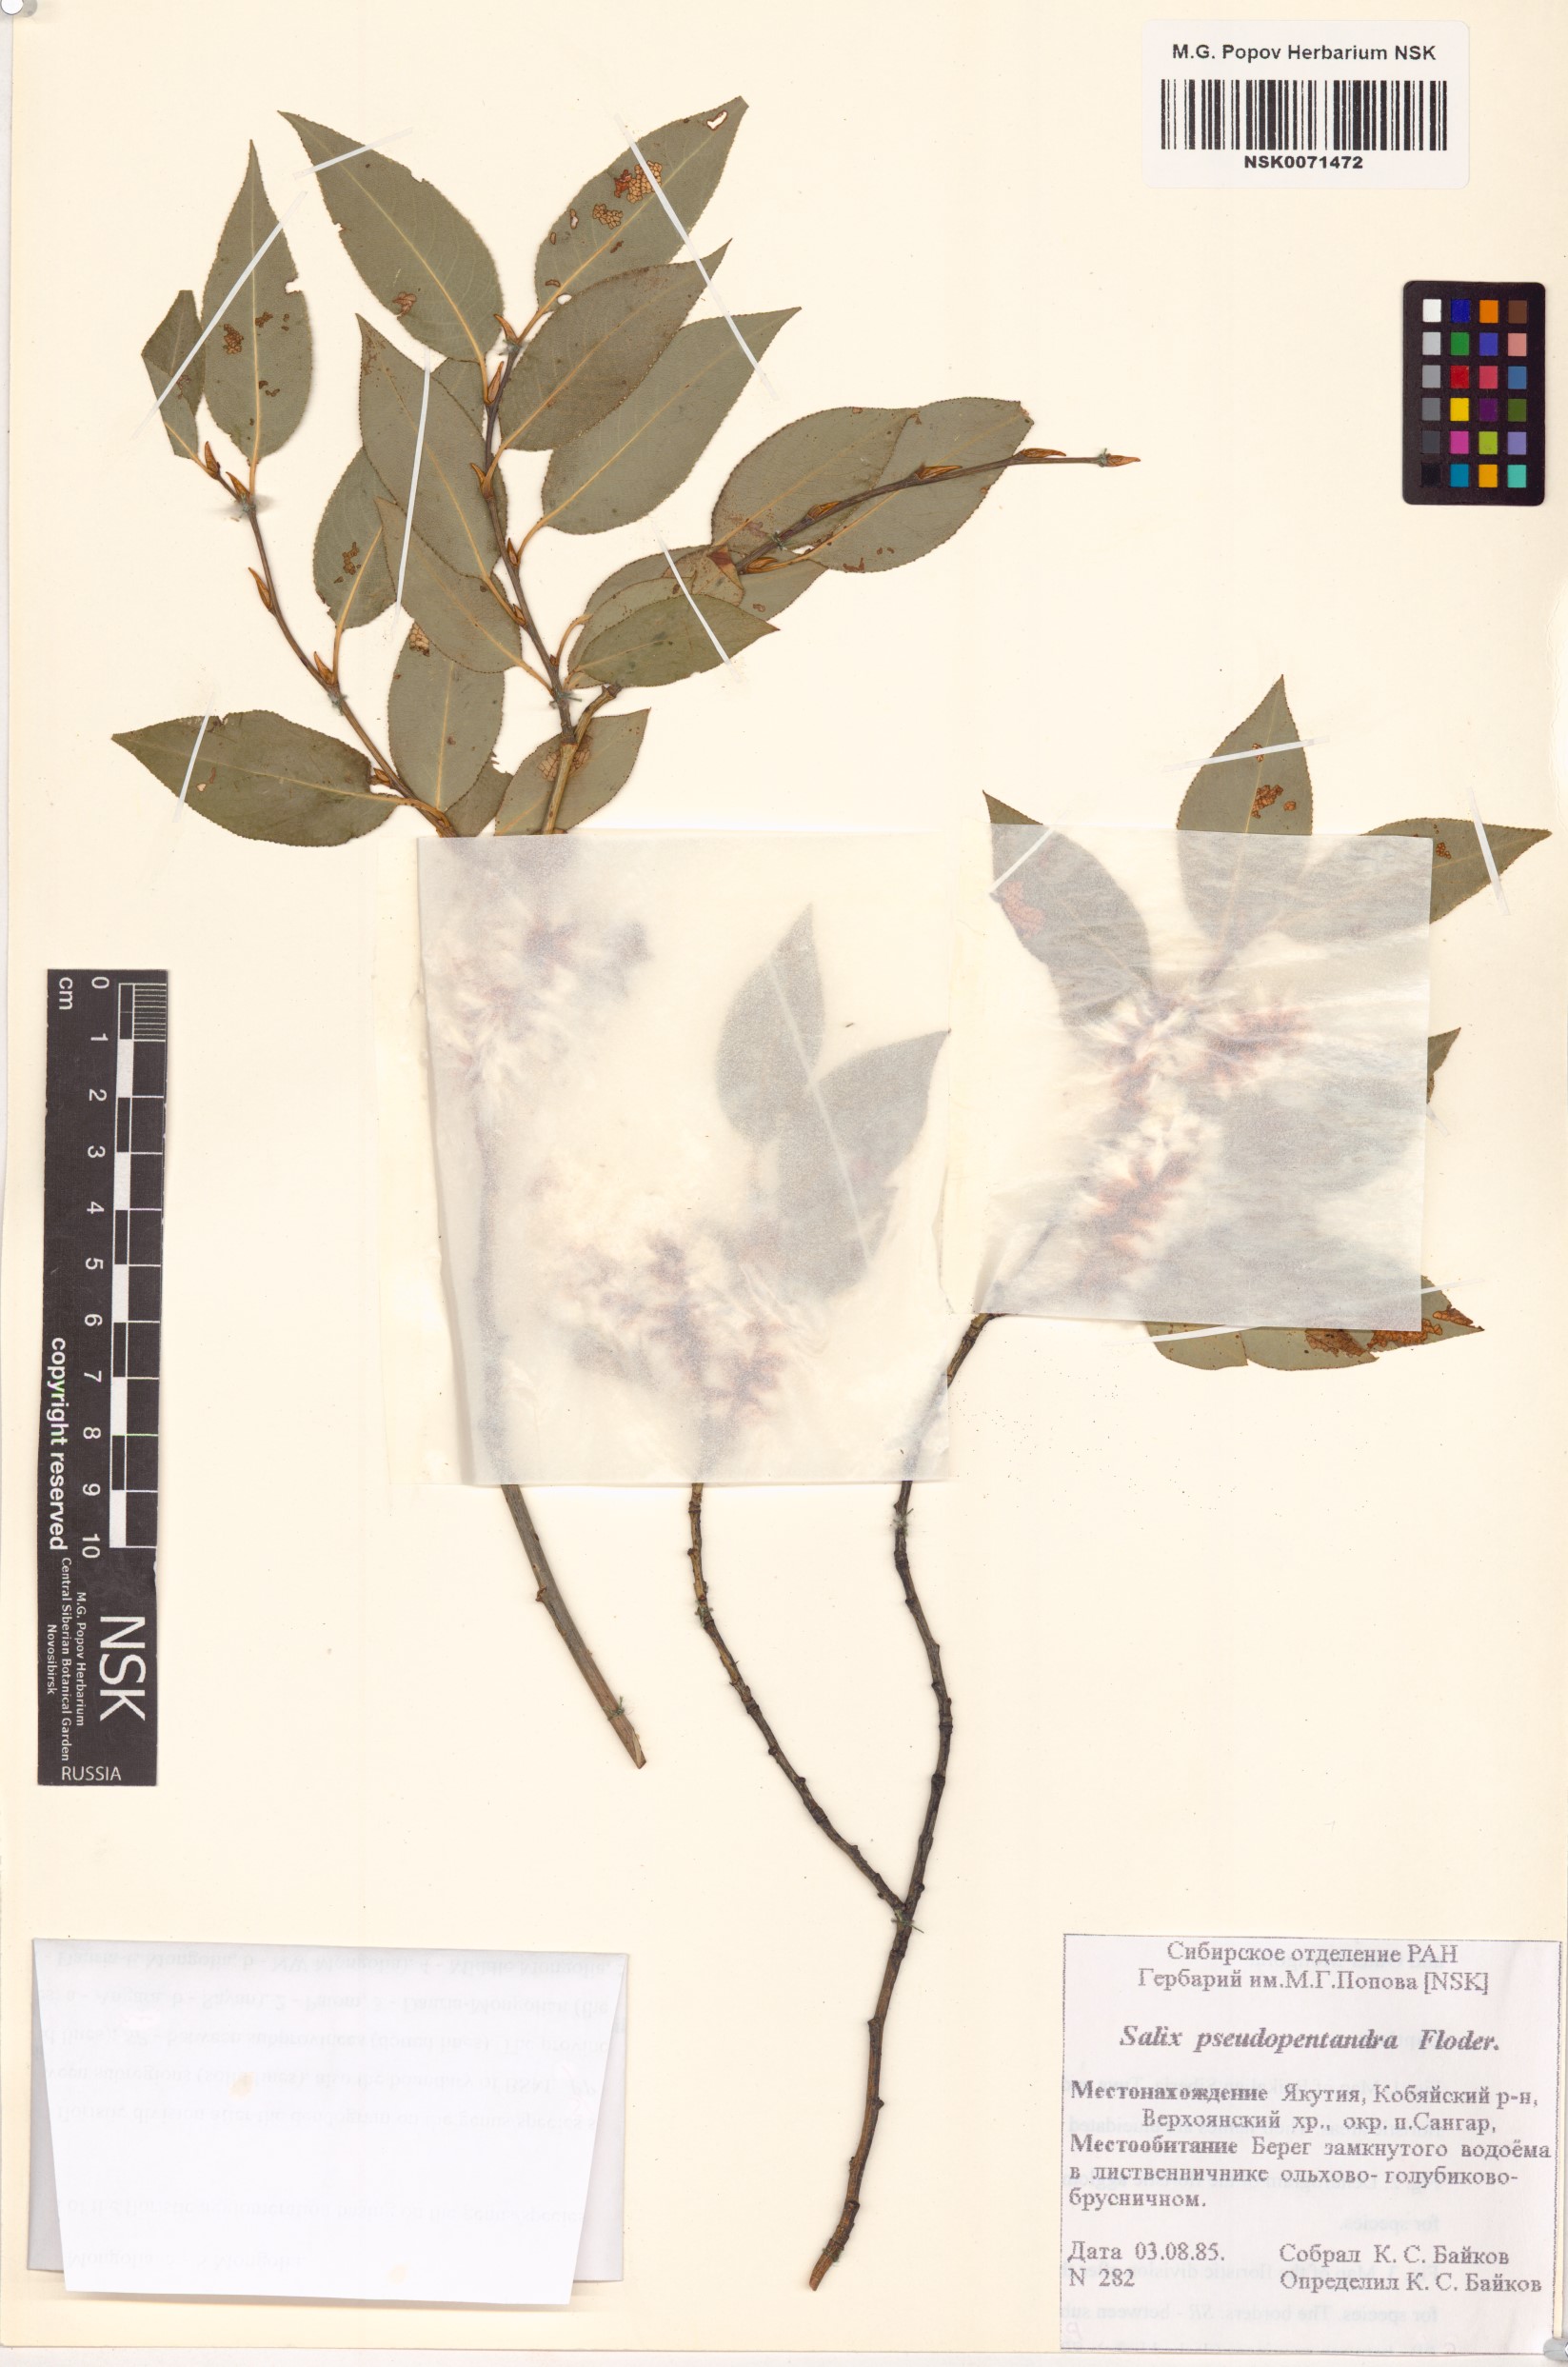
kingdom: Plantae
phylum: Tracheophyta
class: Magnoliopsida
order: Malpighiales
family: Salicaceae
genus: Salix
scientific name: Salix pseudopentandra
